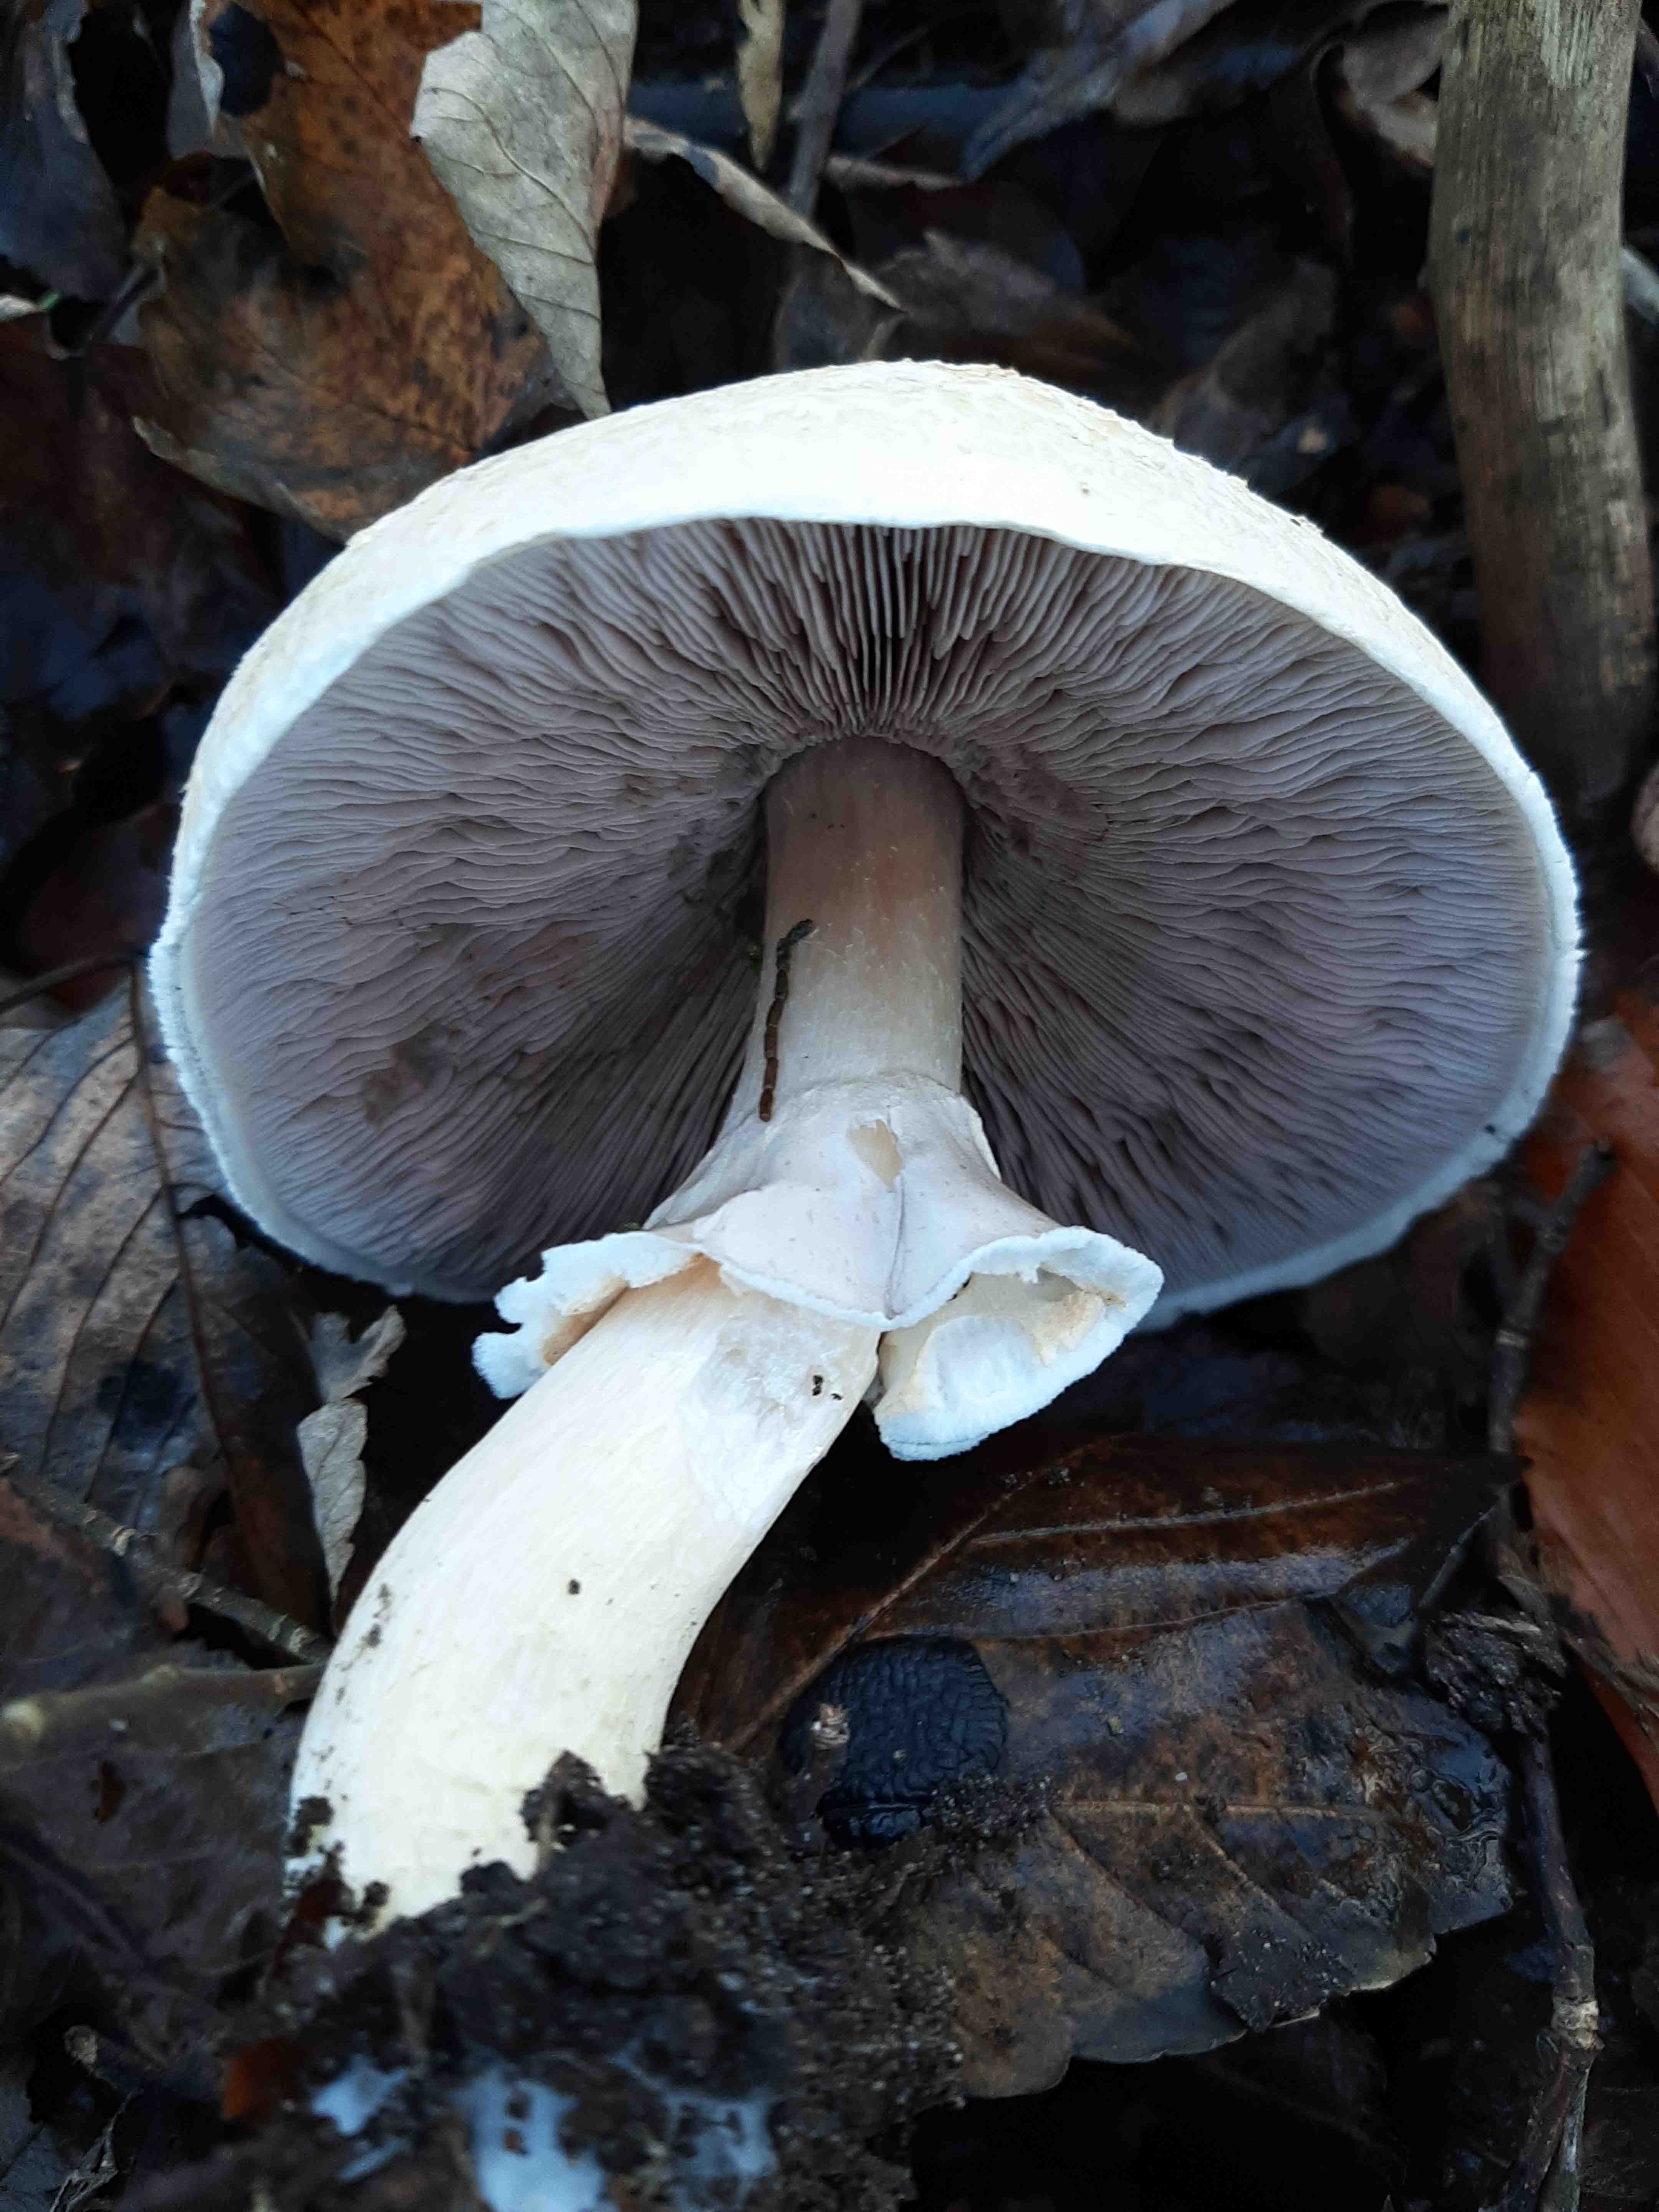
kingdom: Fungi
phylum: Basidiomycota
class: Agaricomycetes
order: Agaricales
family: Agaricaceae
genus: Agaricus
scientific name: Agaricus sylvicola
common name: gulhvid champignon
